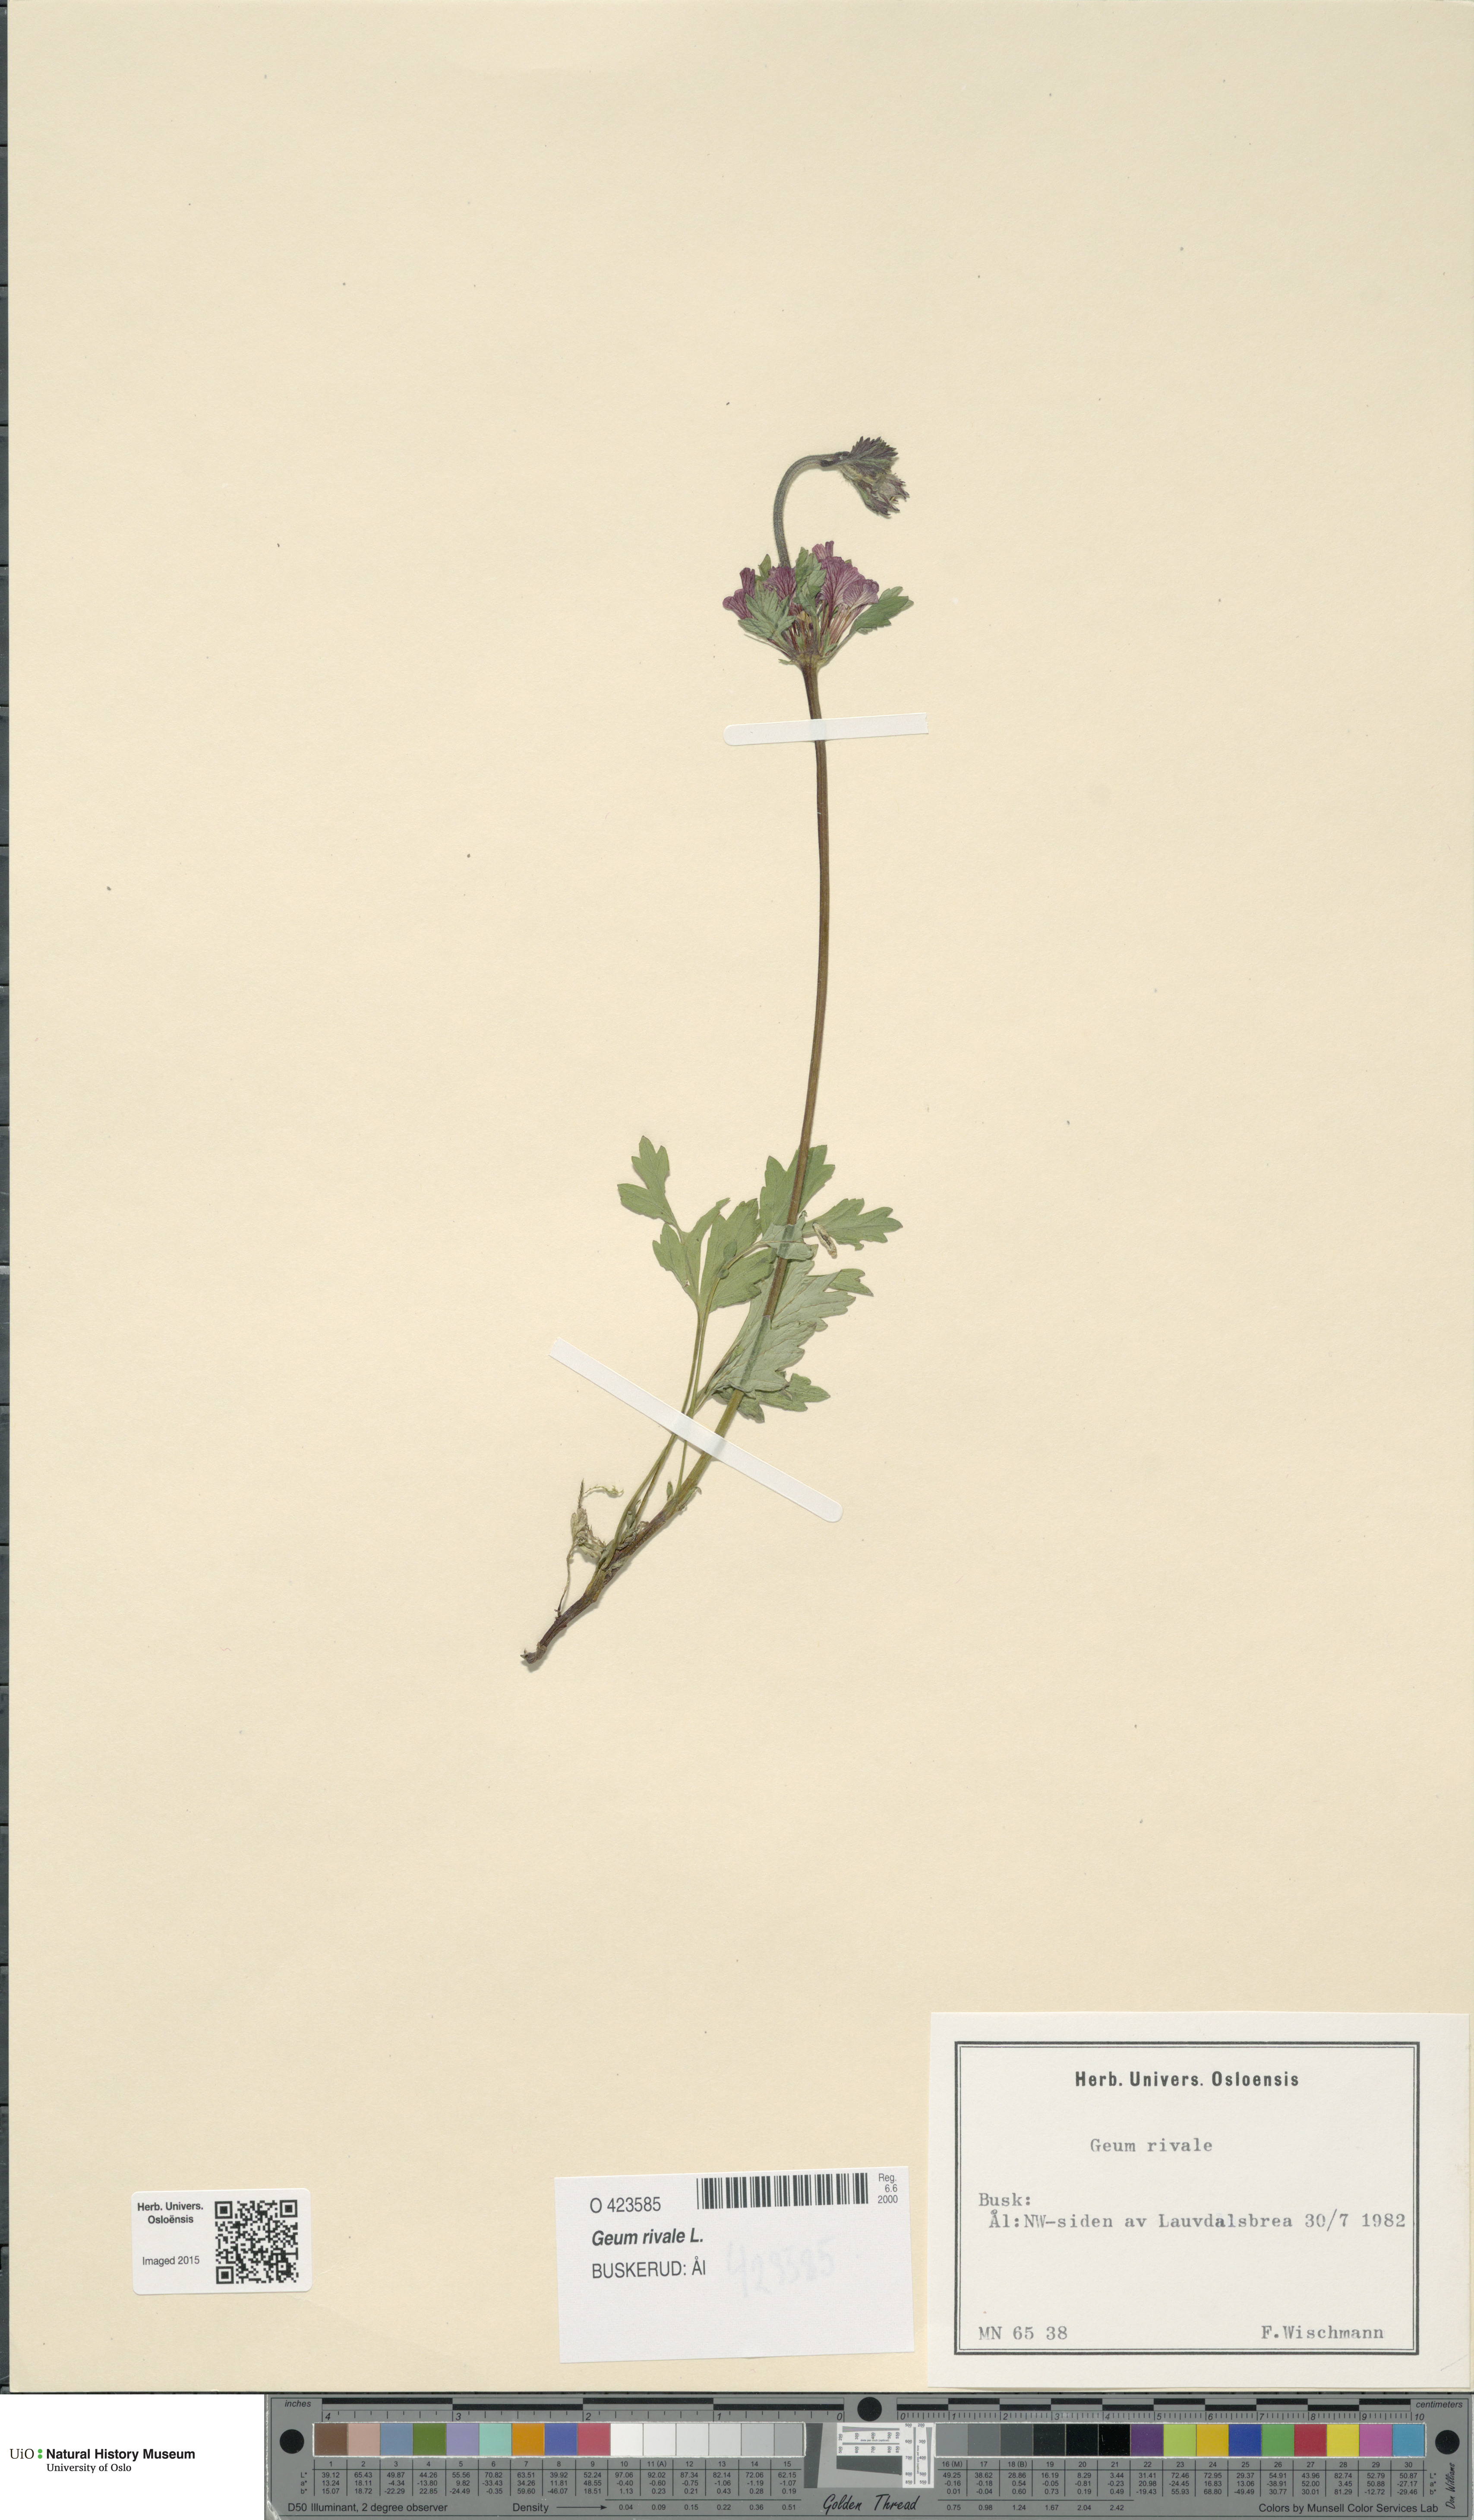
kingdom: Plantae
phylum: Tracheophyta
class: Magnoliopsida
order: Rosales
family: Rosaceae
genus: Geum
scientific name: Geum rivale
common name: Water avens
